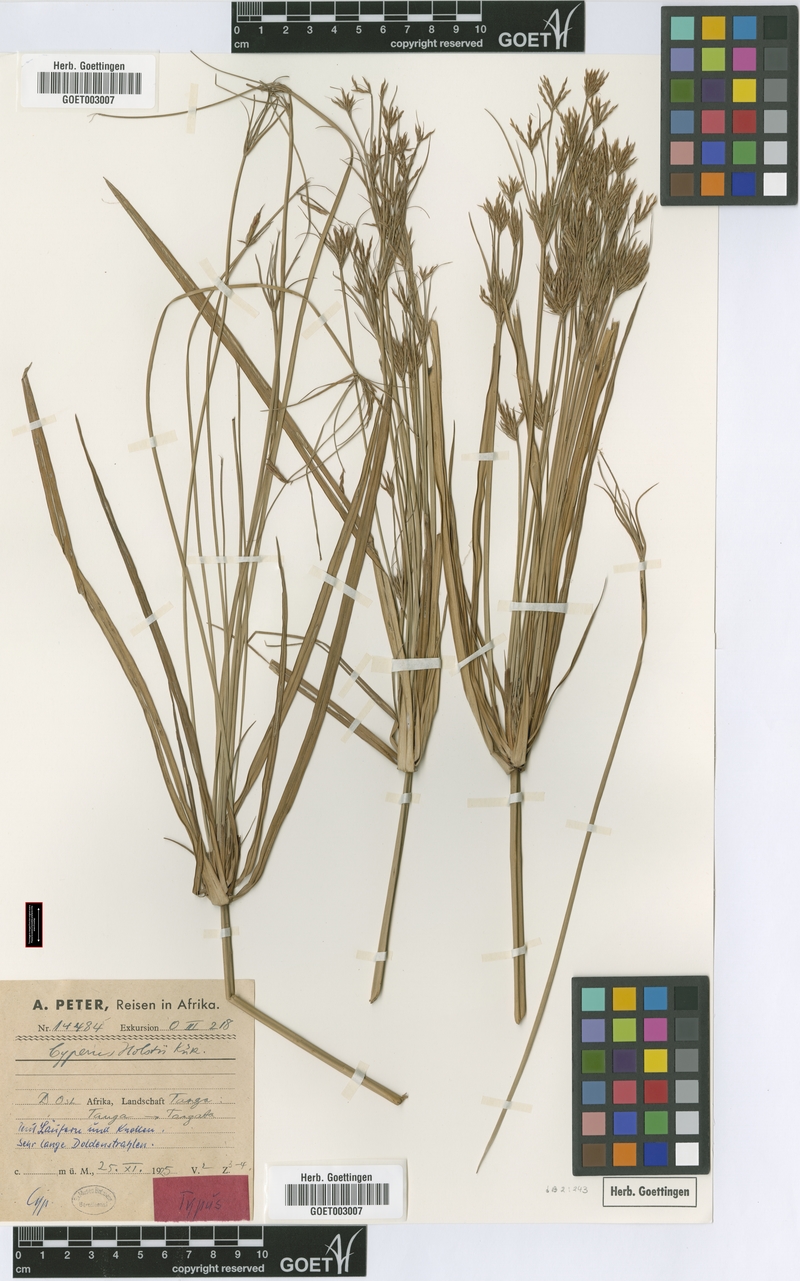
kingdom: Plantae
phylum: Tracheophyta
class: Liliopsida
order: Poales
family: Cyperaceae
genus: Cyperus
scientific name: Cyperus holstii
